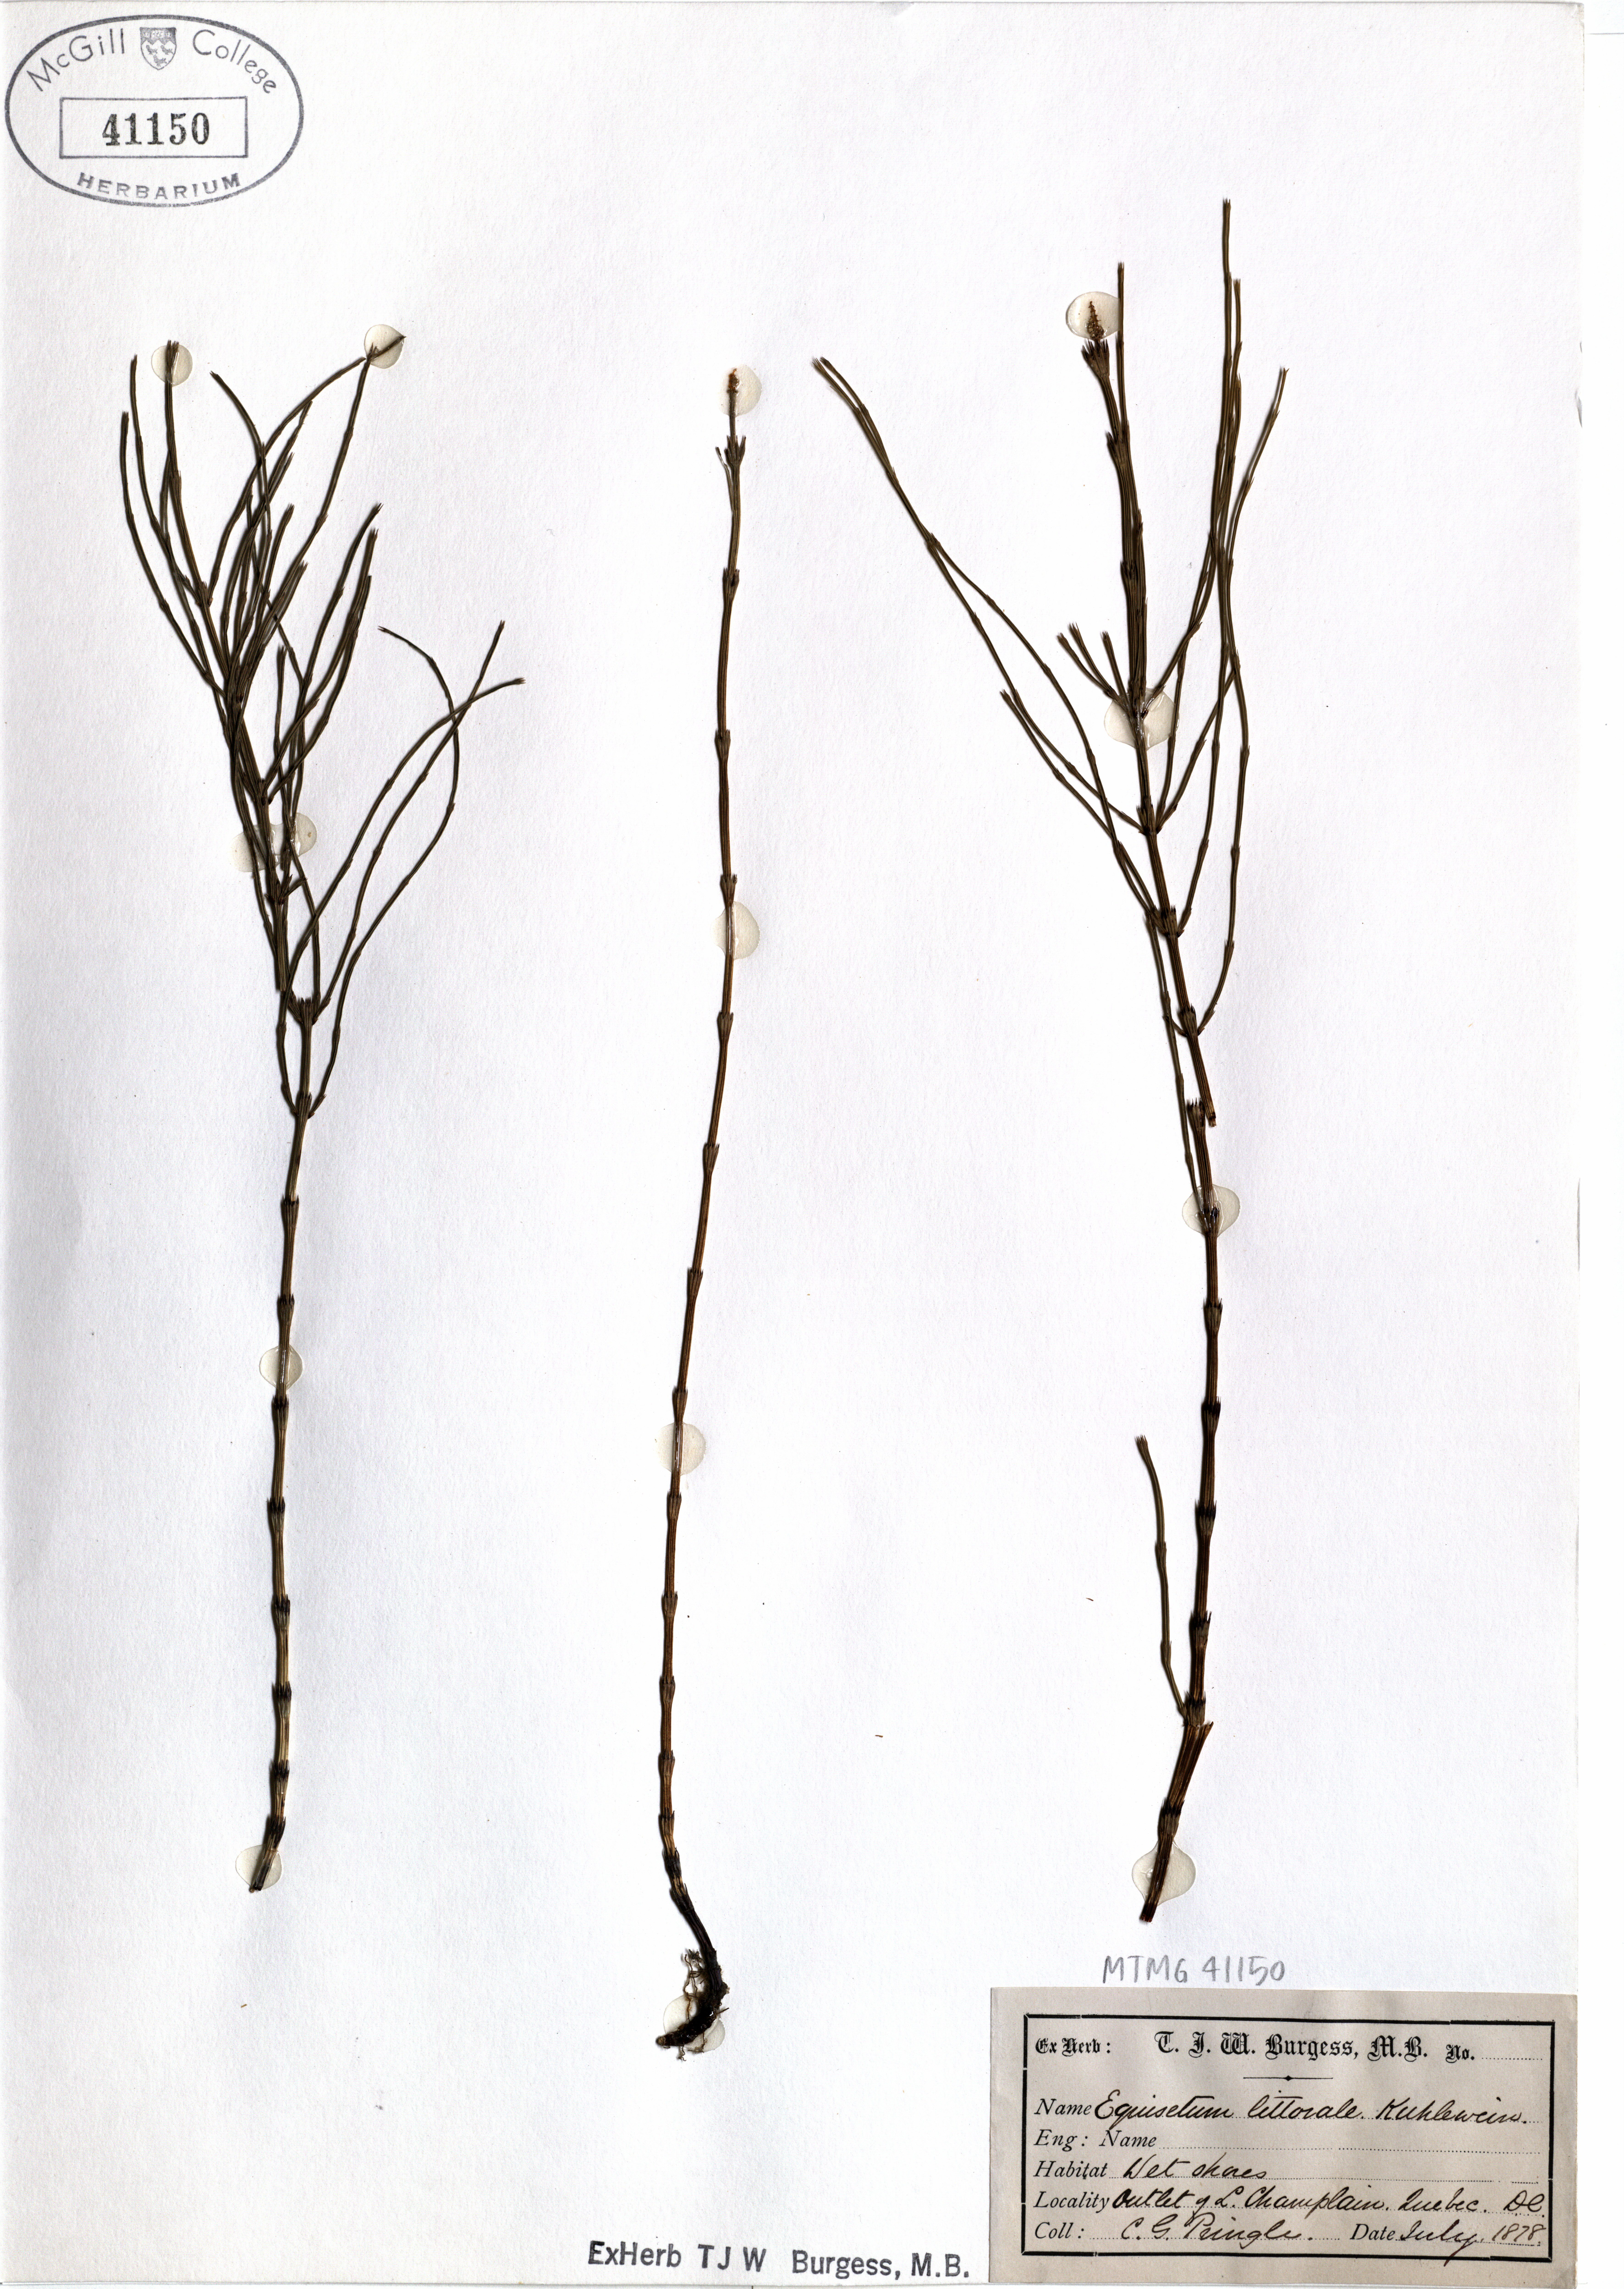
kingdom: Plantae
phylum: Tracheophyta
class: Polypodiopsida
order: Equisetales
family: Equisetaceae
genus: Equisetum
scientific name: Equisetum litorale
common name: Littoral horsetail
